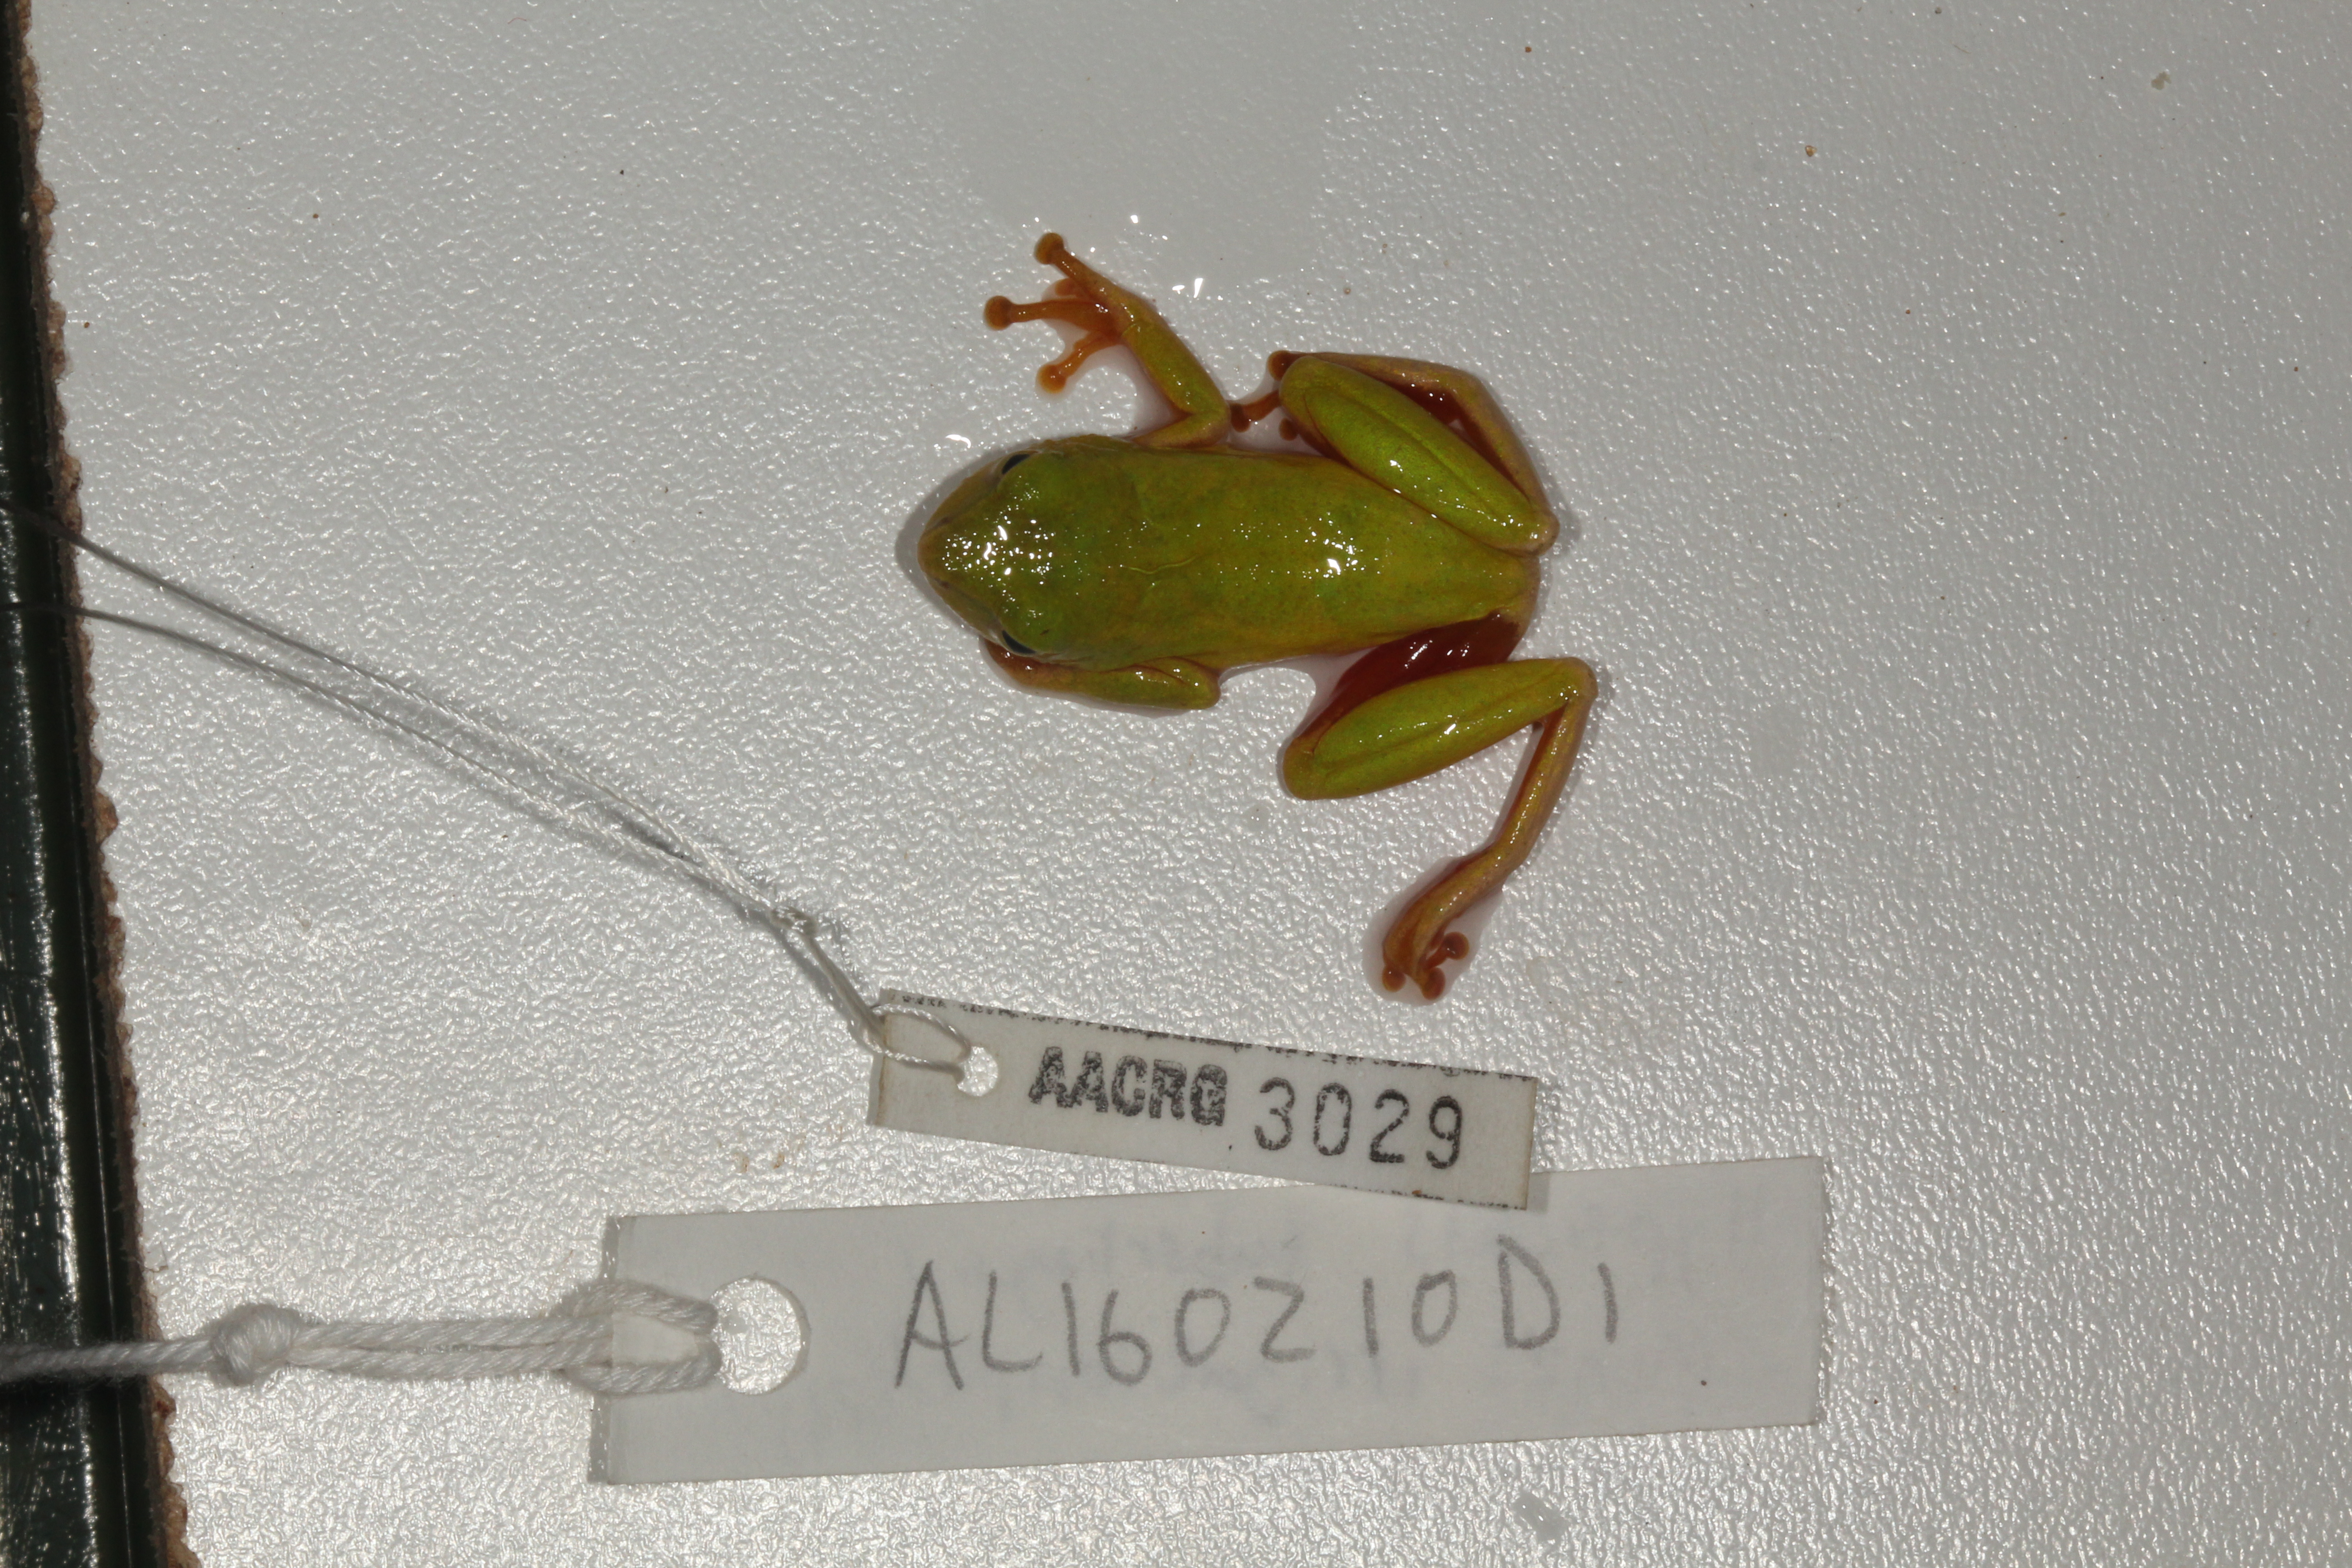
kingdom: Animalia
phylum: Chordata
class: Amphibia
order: Anura
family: Hyperoliidae
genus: Hyperolius
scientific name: Hyperolius tuberilinguis
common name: Tinker reed frog
